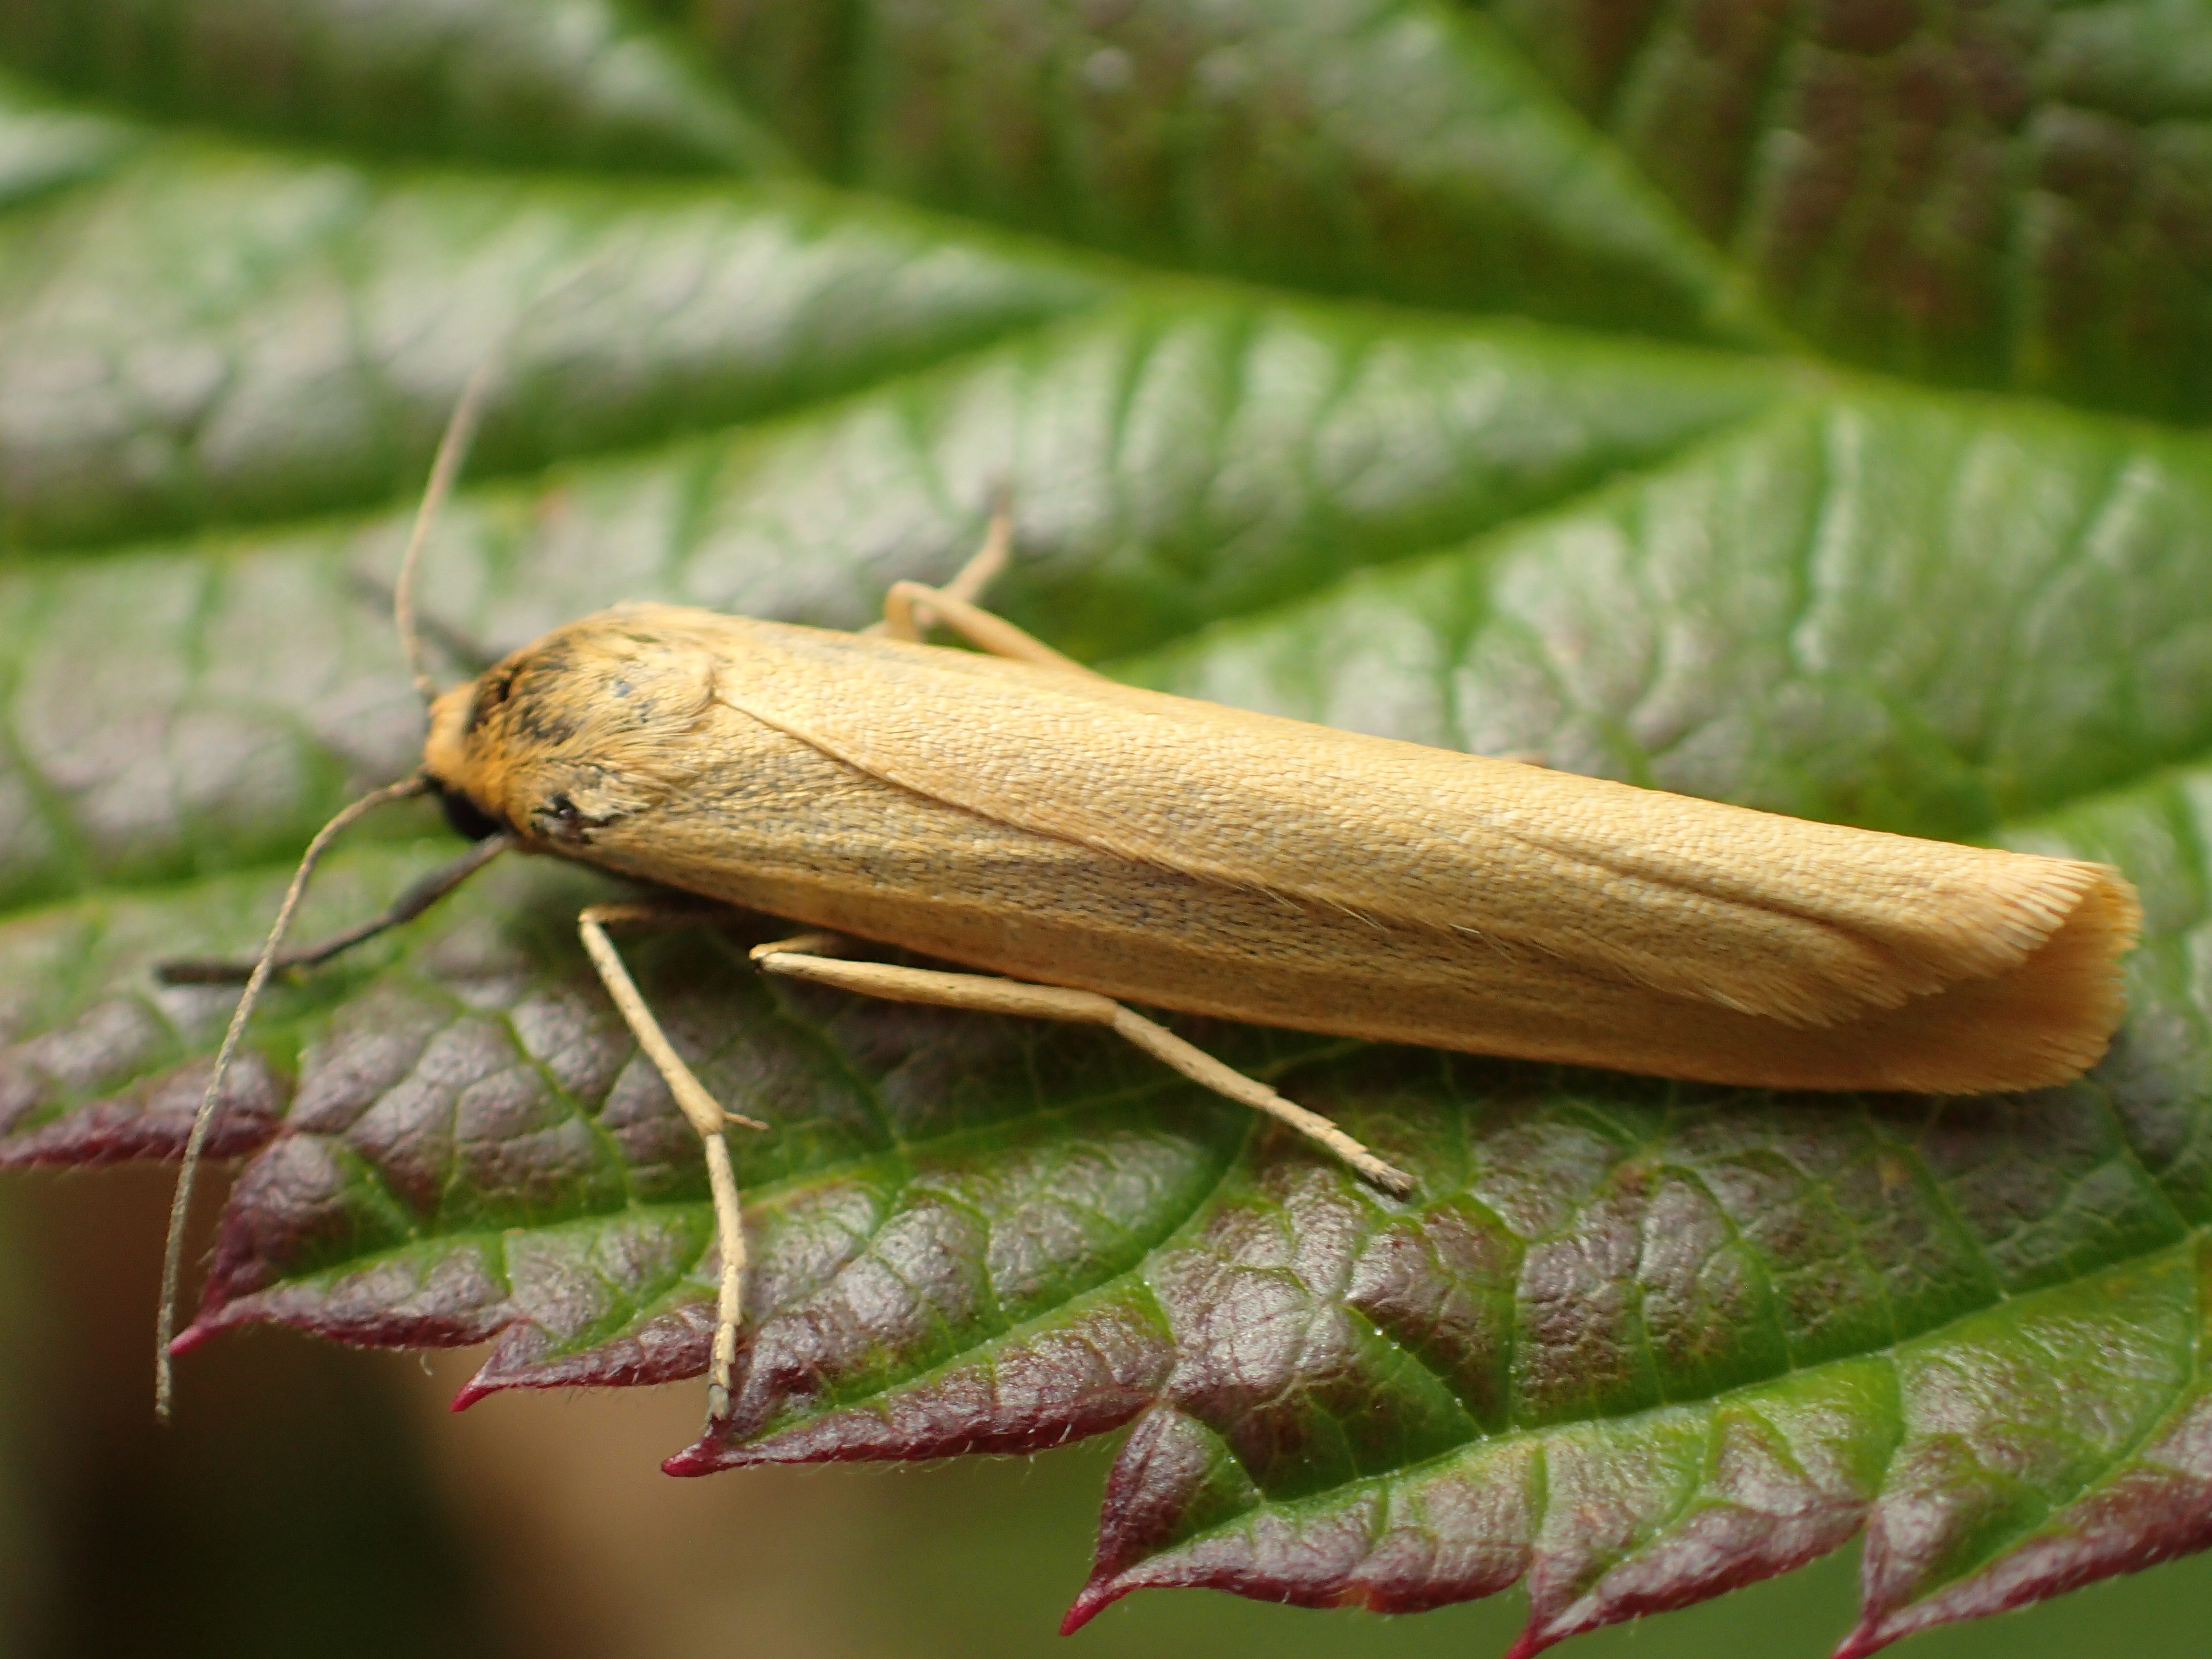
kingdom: Animalia
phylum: Arthropoda
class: Insecta
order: Lepidoptera
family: Crambidae
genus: Agriphila
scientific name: Agriphila tristellus
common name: Common grass-veneer
